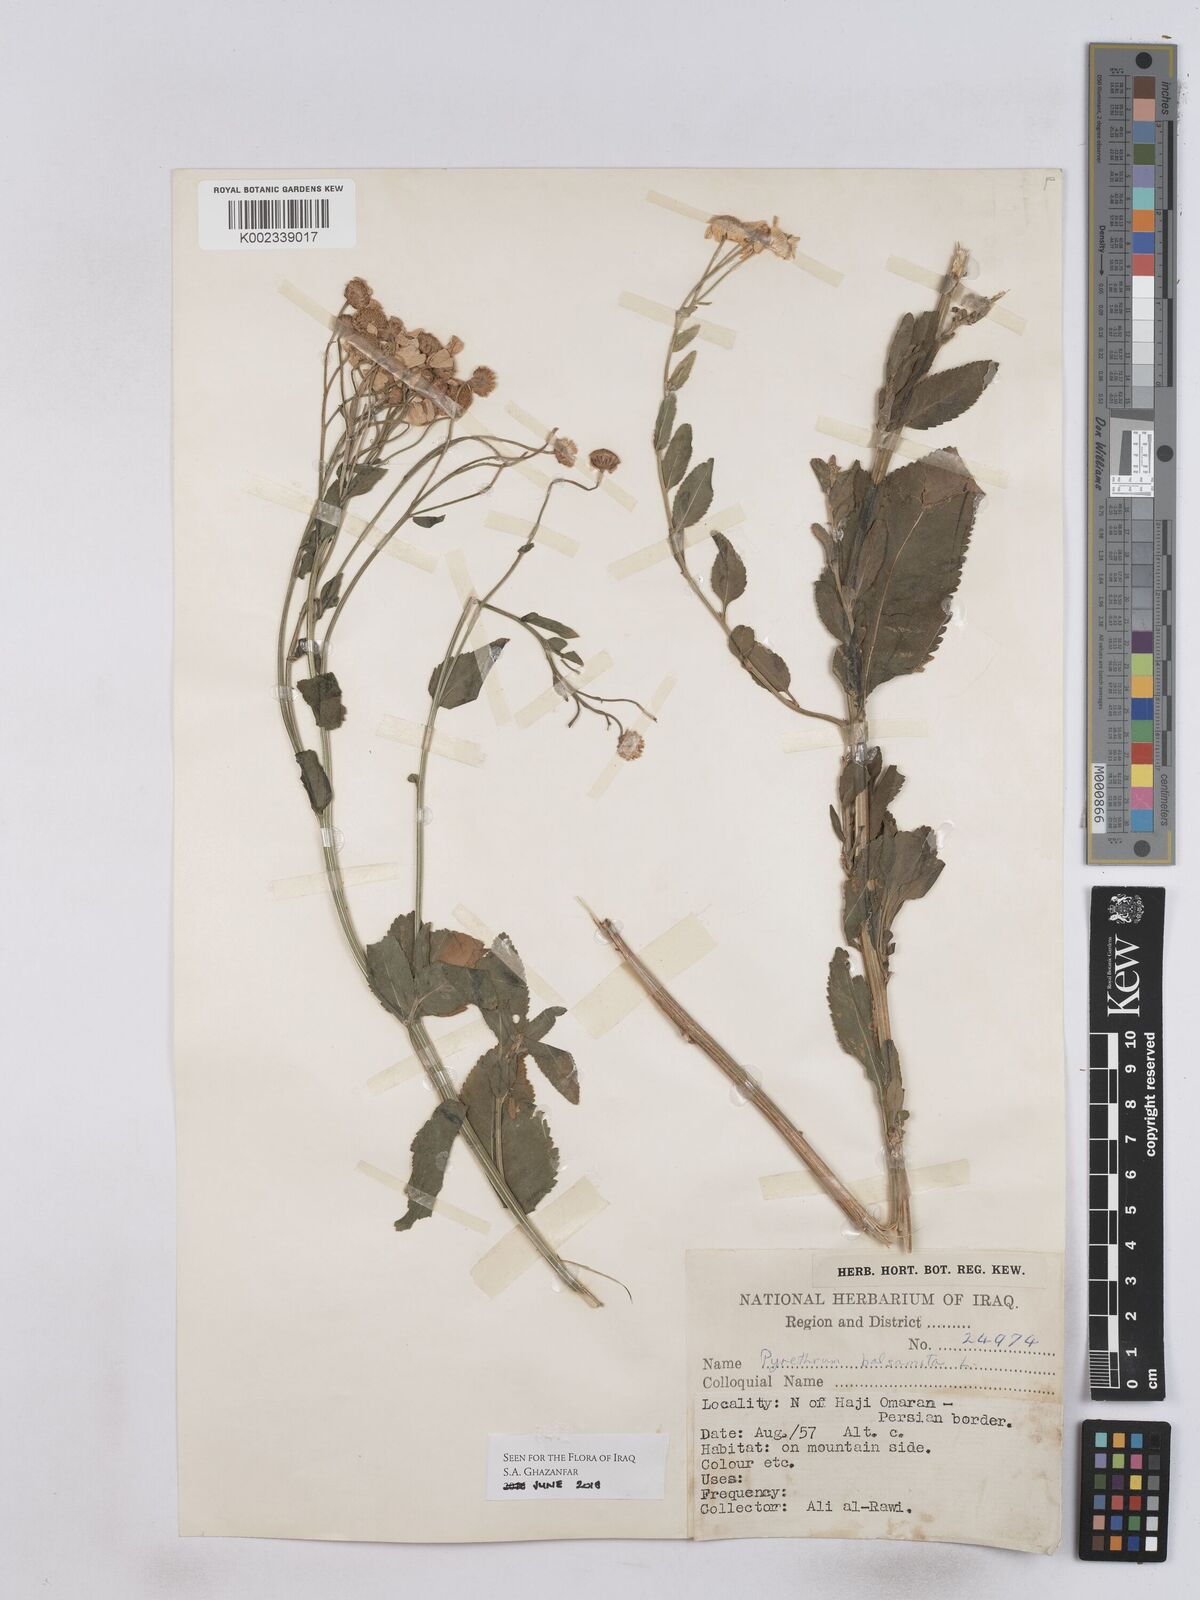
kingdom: Plantae
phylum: Tracheophyta
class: Magnoliopsida
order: Asterales
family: Asteraceae
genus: Tanacetum
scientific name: Tanacetum balsamitoides
